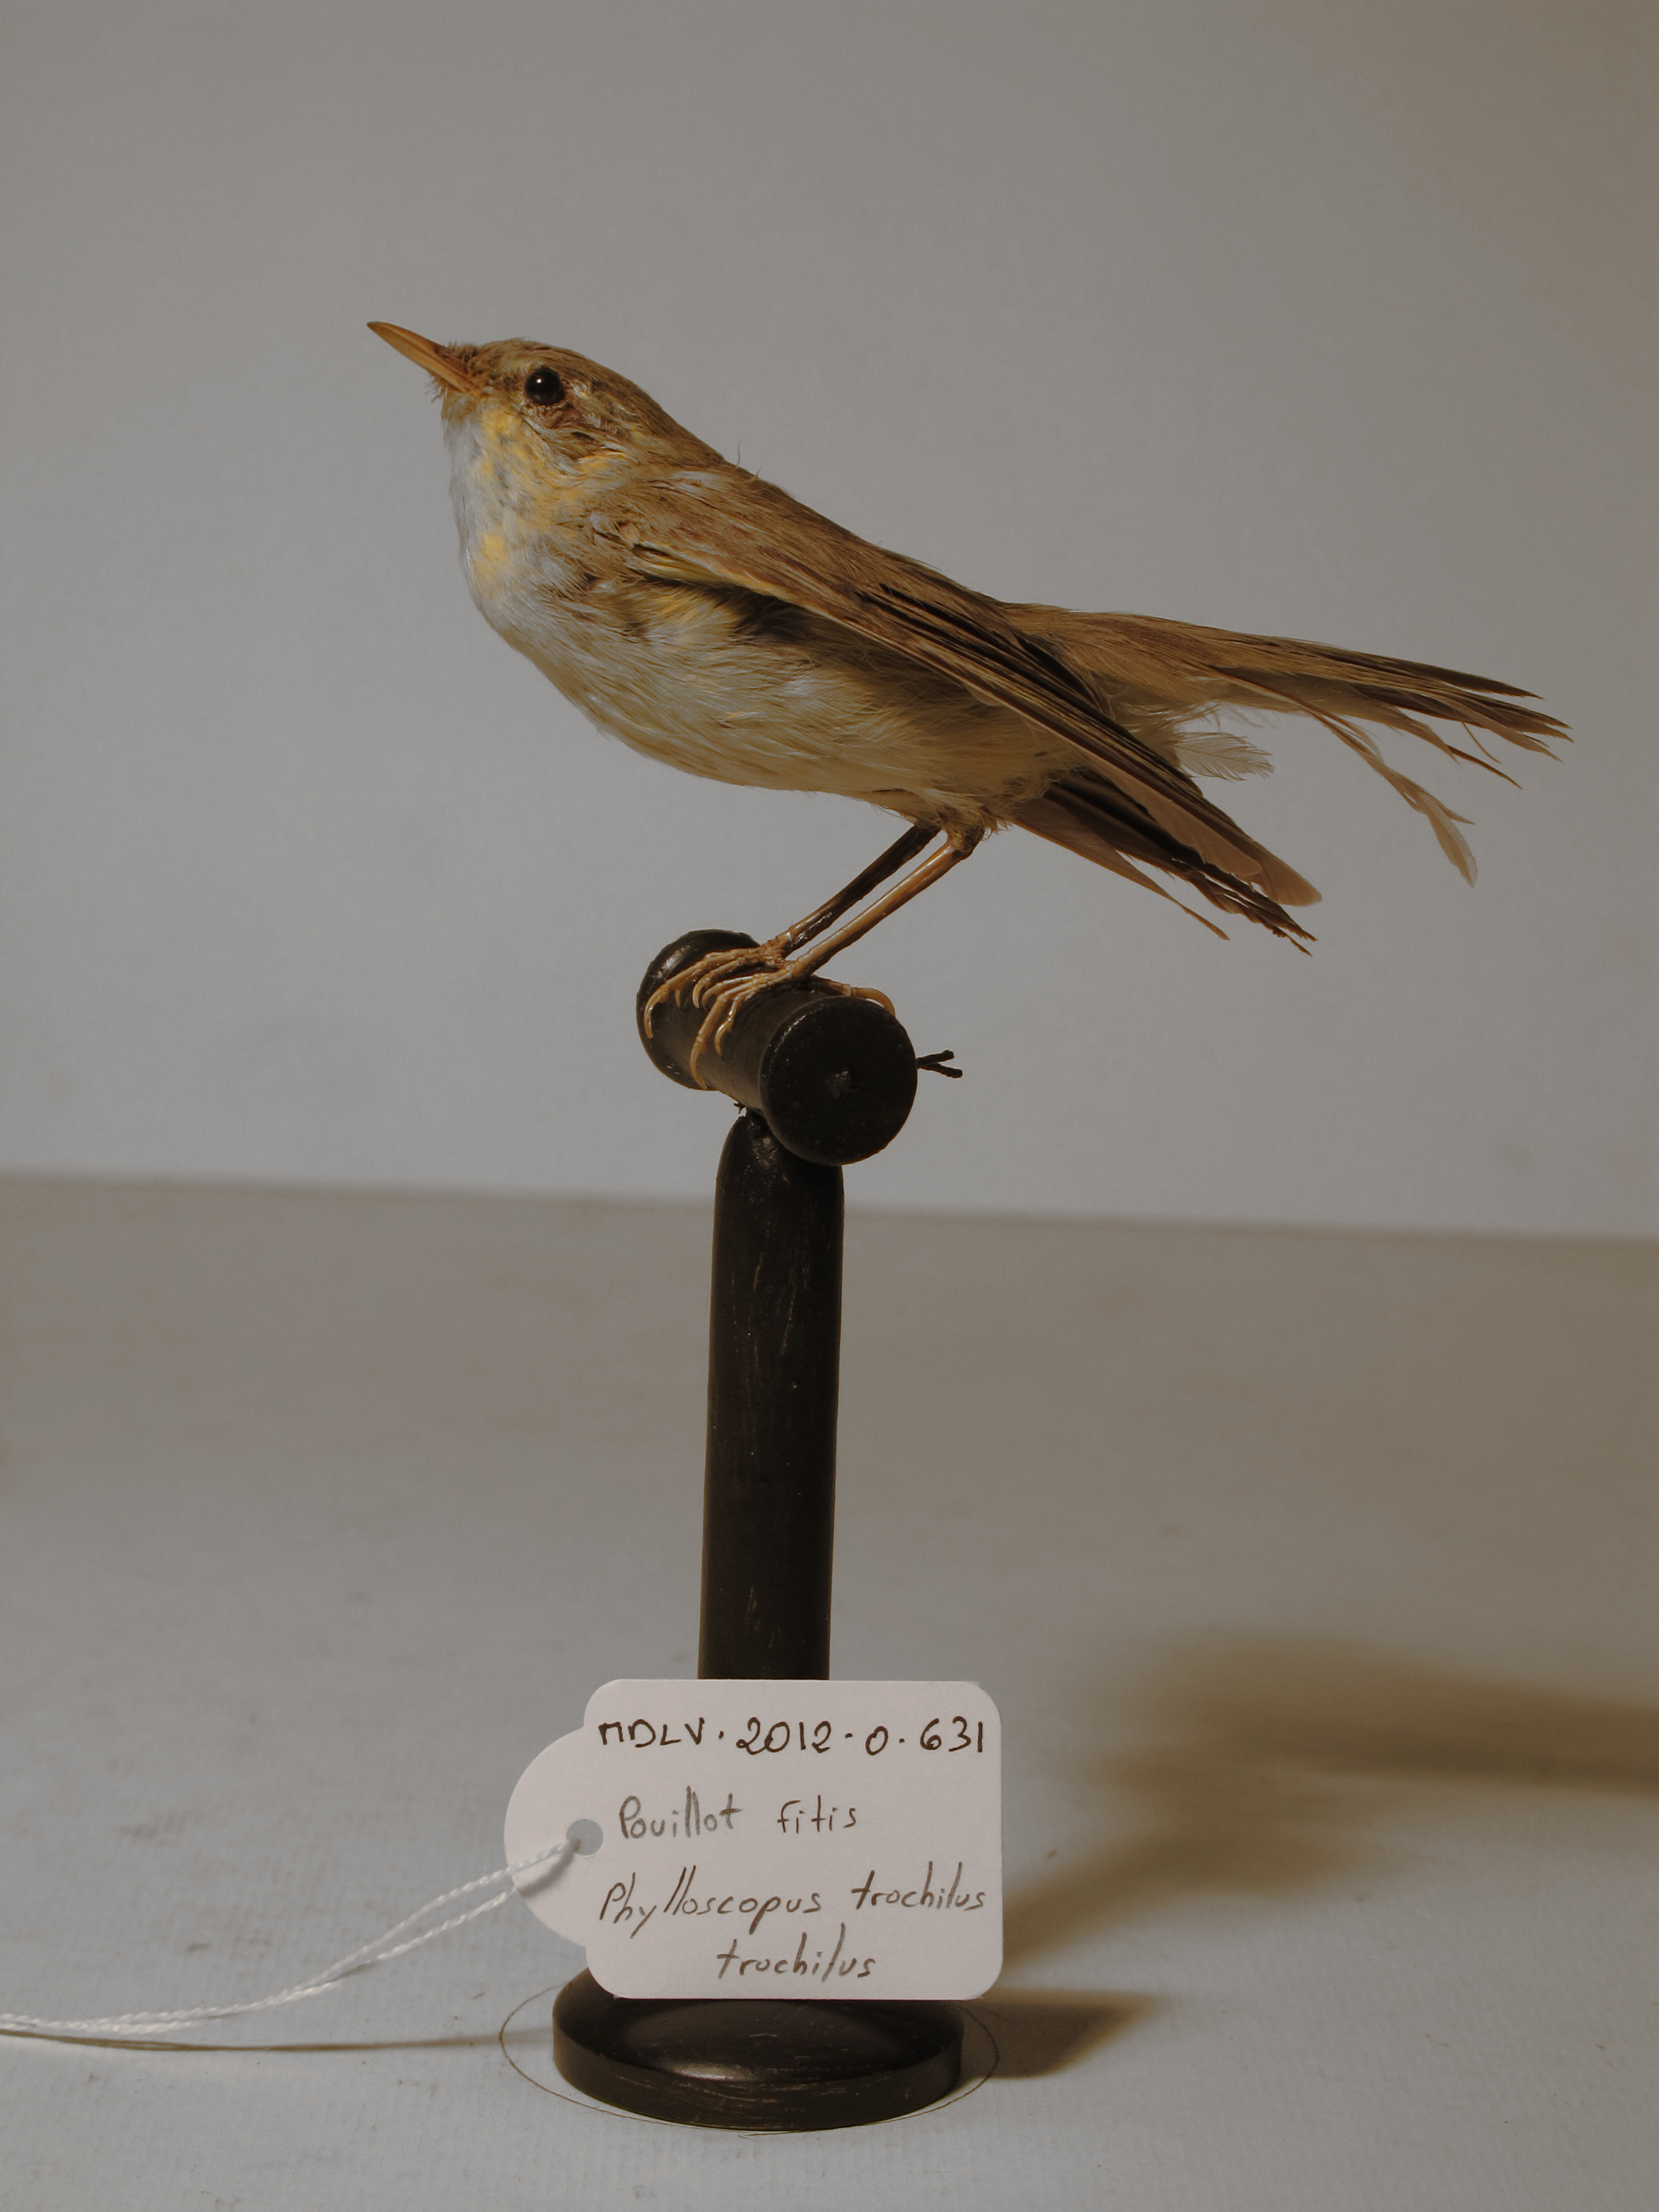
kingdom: Animalia
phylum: Chordata
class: Aves
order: Passeriformes
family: Phylloscopidae
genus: Phylloscopus
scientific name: Phylloscopus trochilus
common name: Willow Warbler
